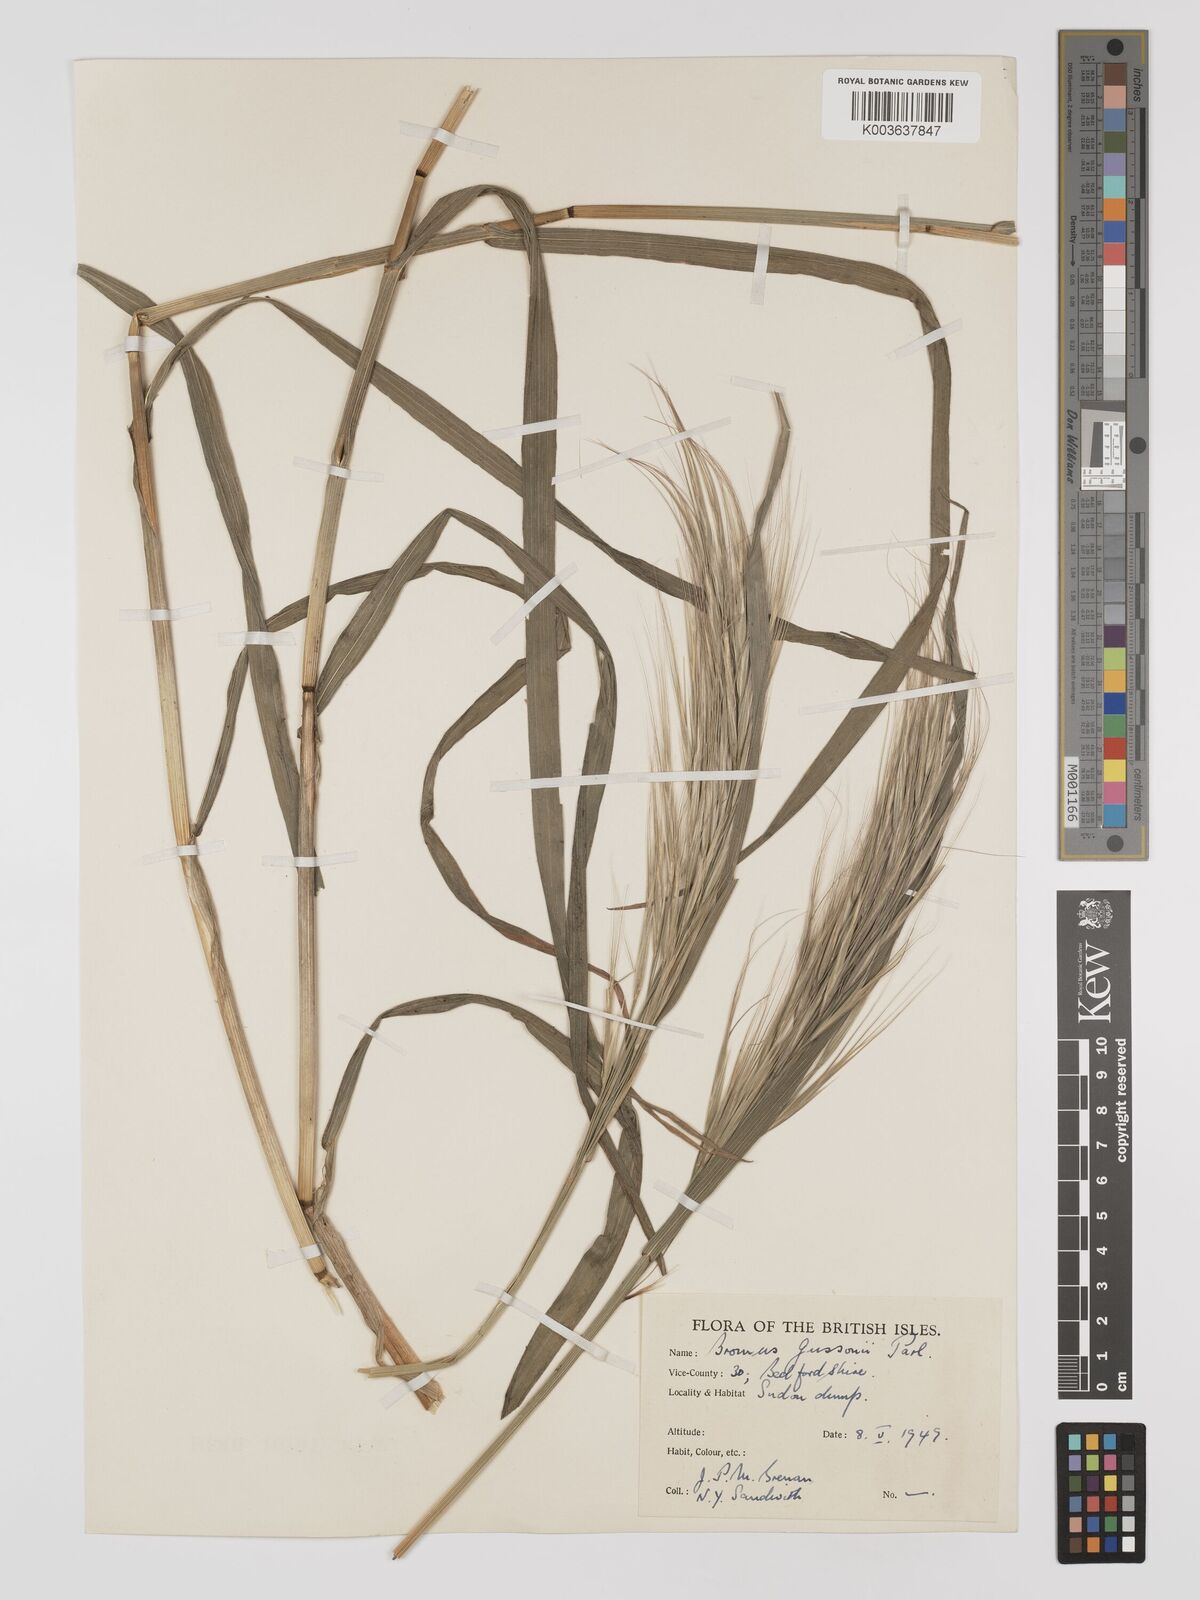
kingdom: Plantae
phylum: Tracheophyta
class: Liliopsida
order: Poales
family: Poaceae
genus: Bromus
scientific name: Bromus
